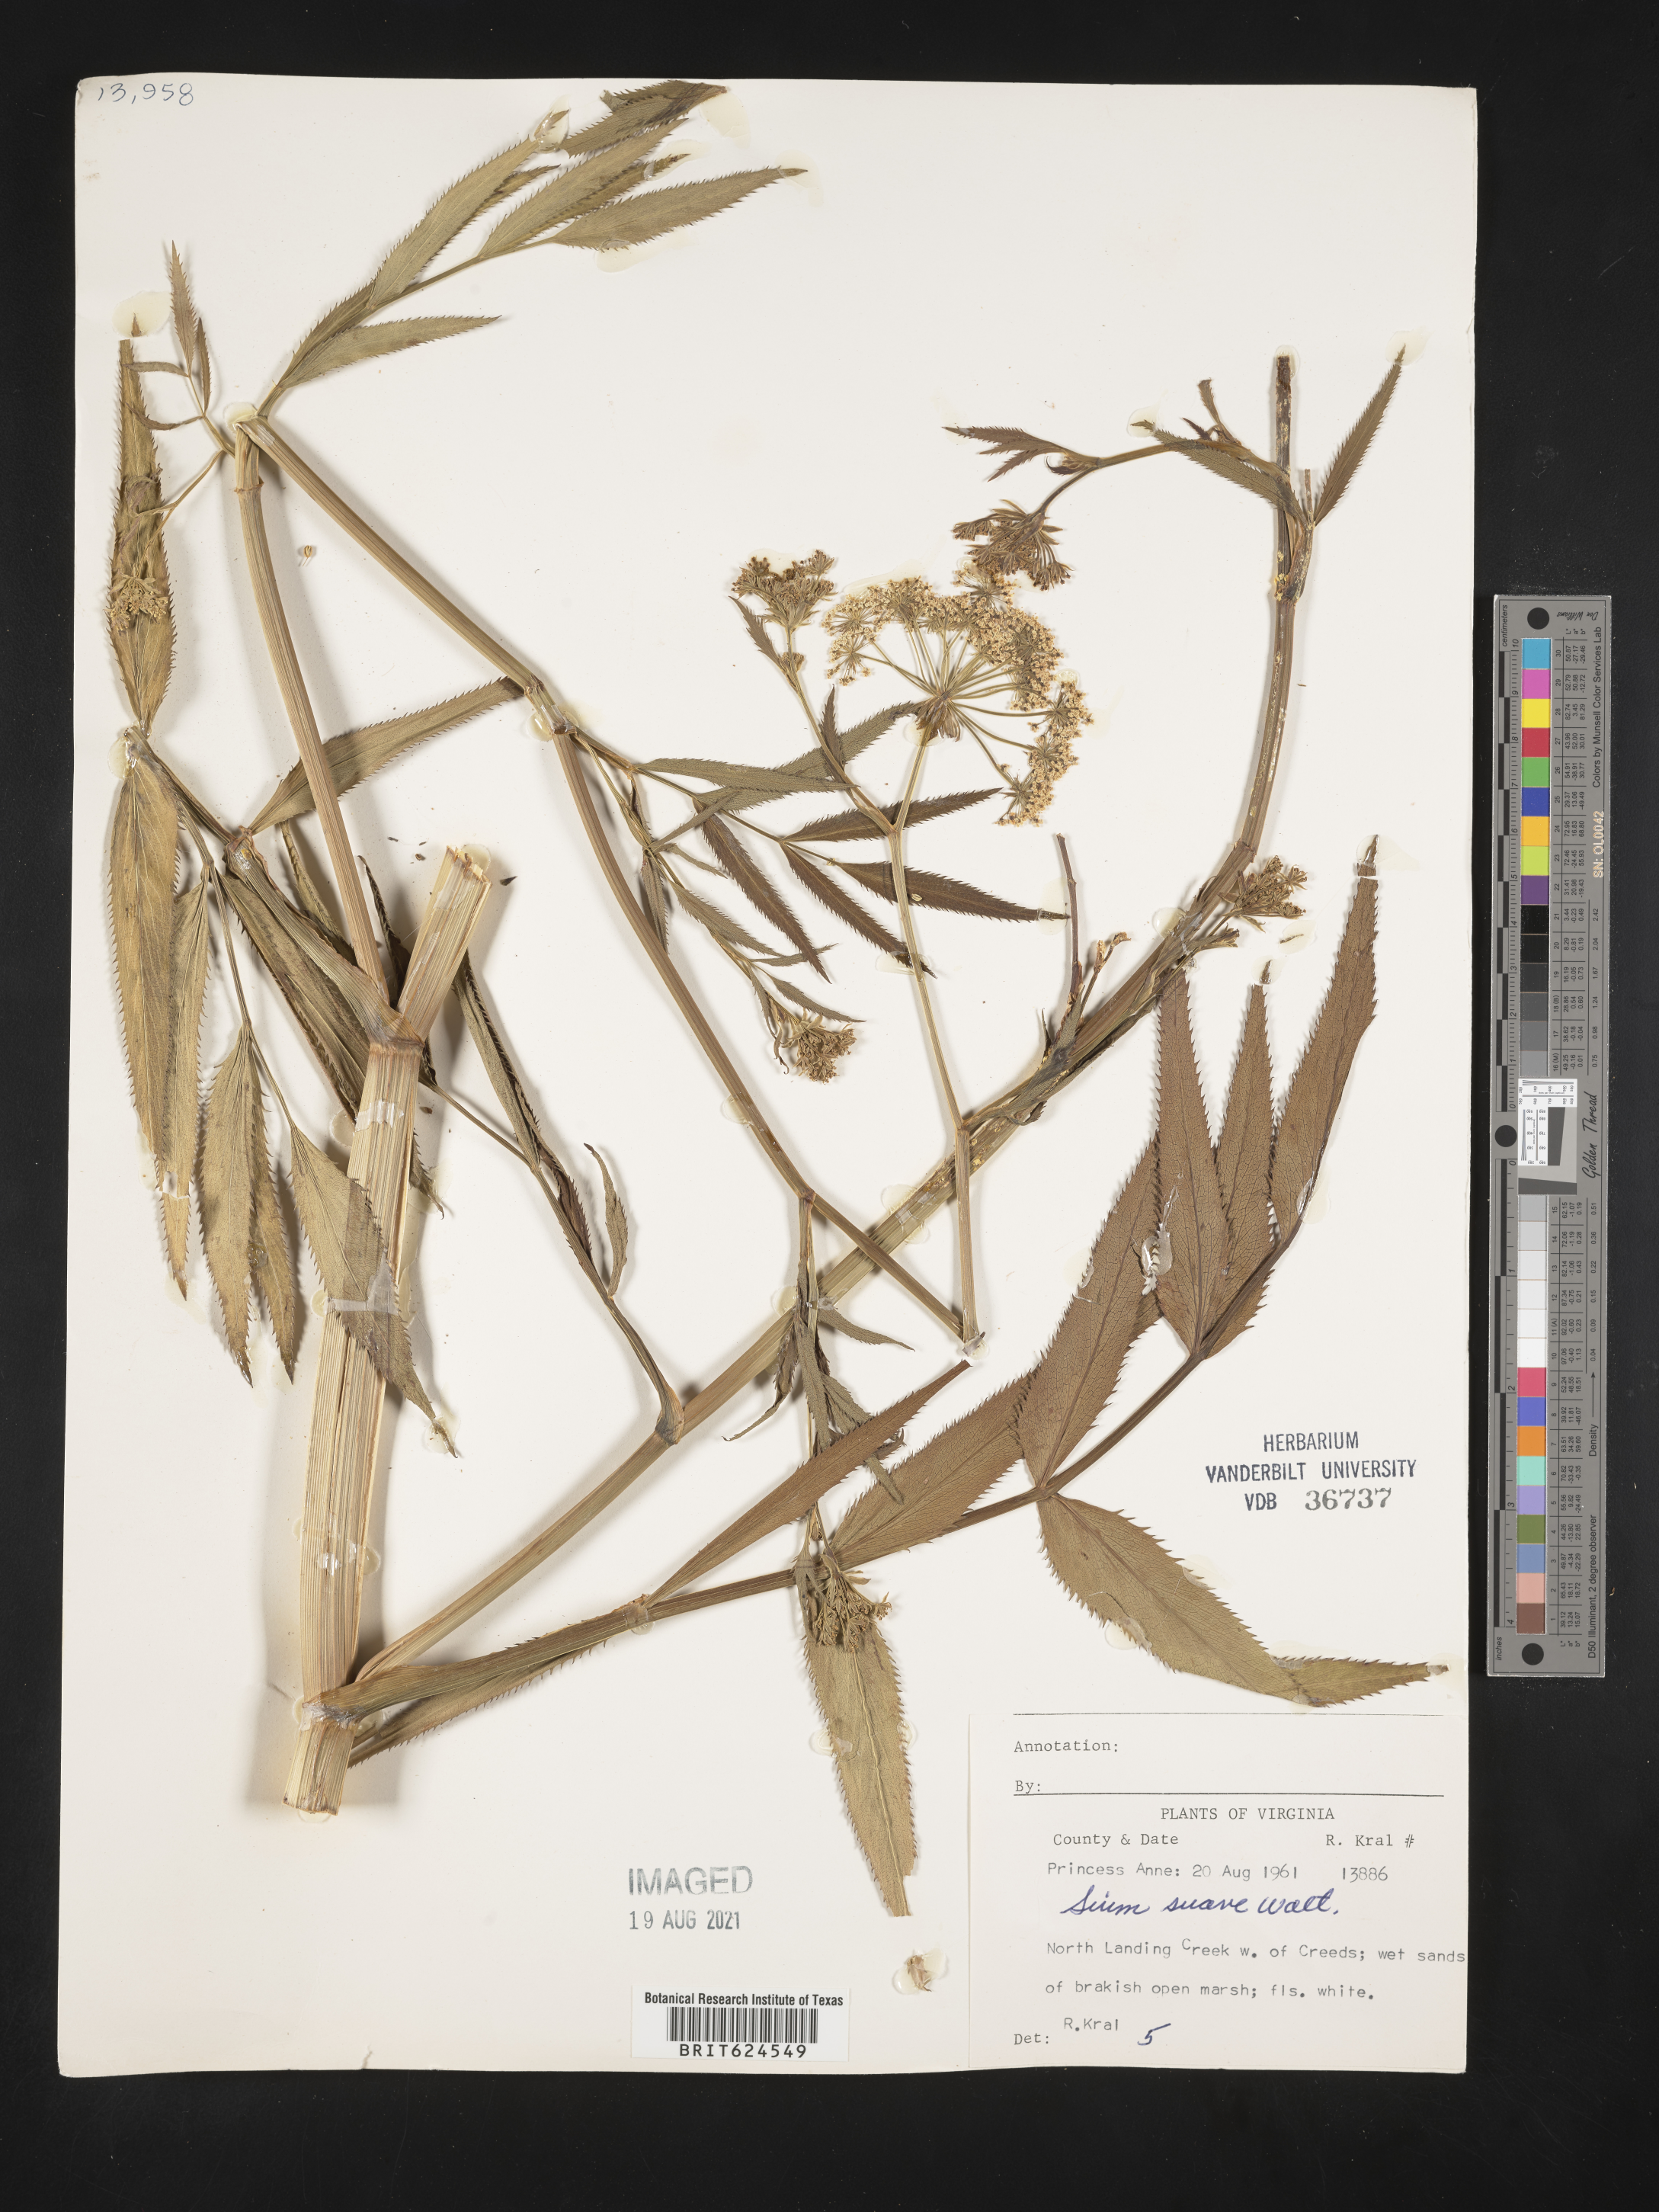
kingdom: Plantae
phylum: Tracheophyta
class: Magnoliopsida
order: Apiales
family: Apiaceae
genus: Sium
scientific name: Sium suave
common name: Hemlock water-parsnip
